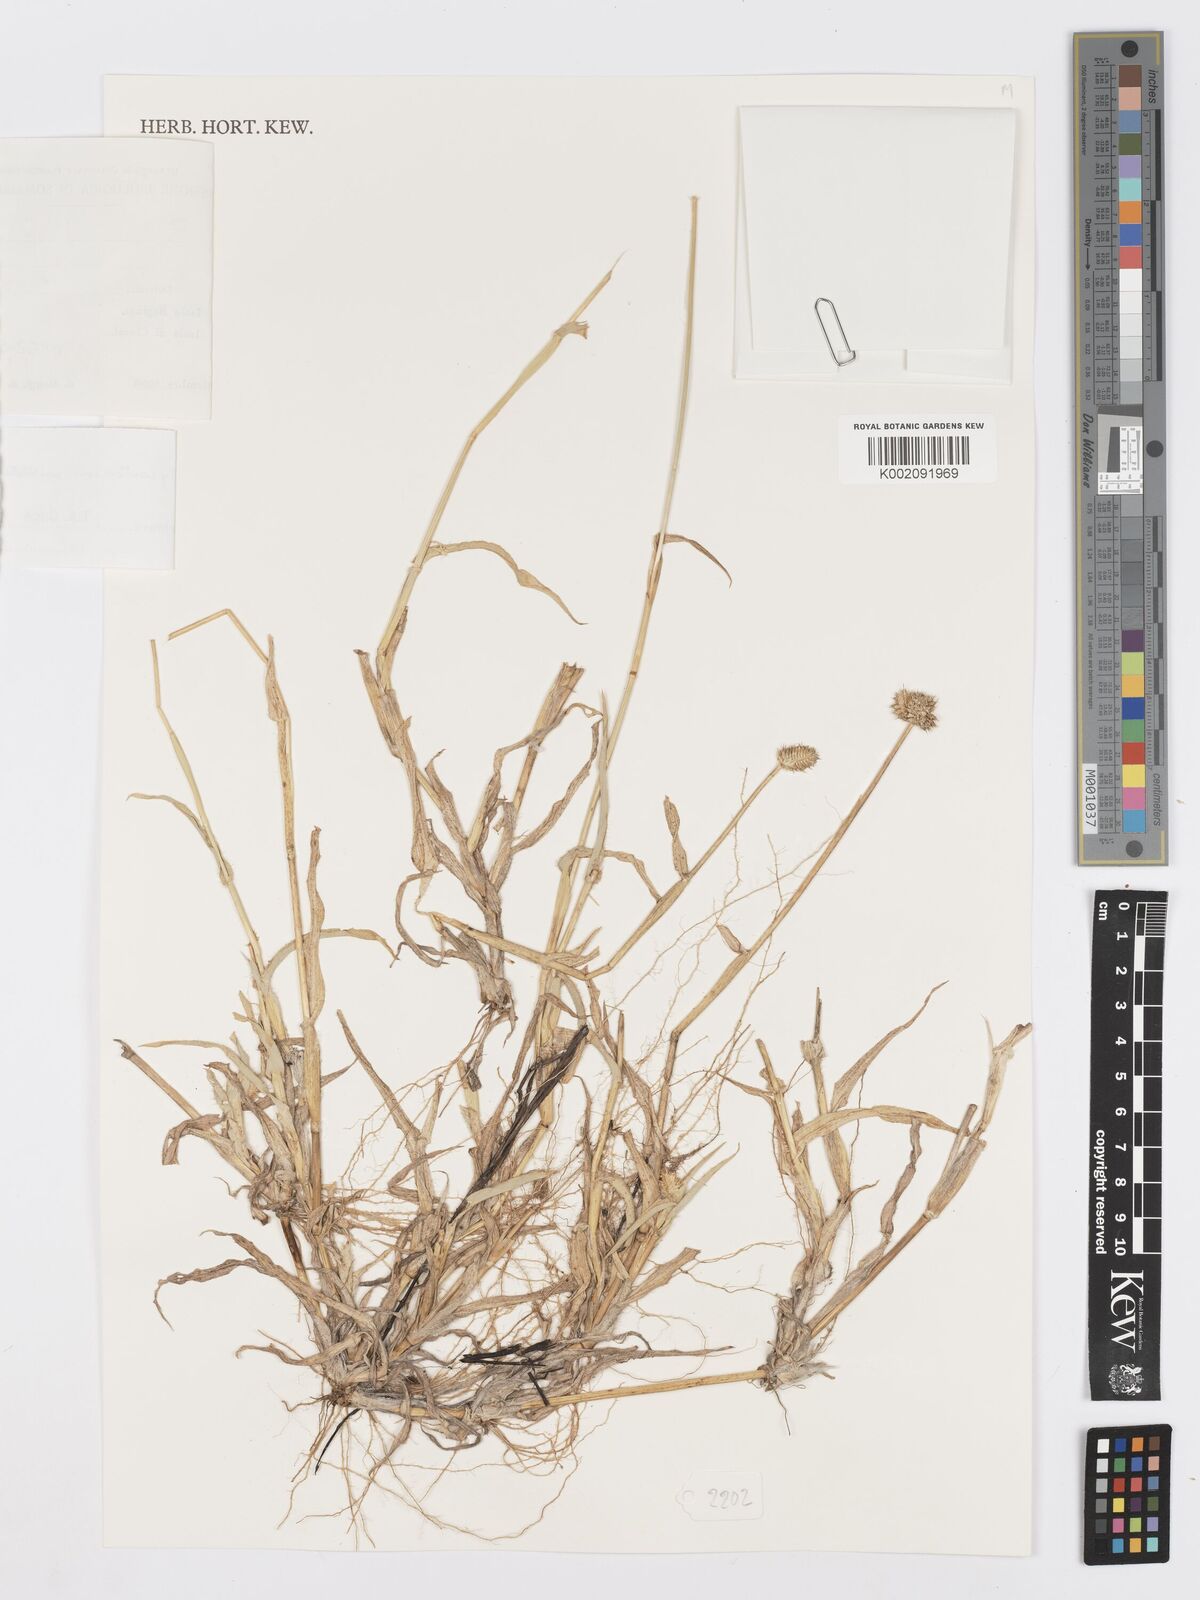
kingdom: Plantae
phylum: Tracheophyta
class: Liliopsida
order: Poales
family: Poaceae
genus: Dactyloctenium
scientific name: Dactyloctenium aristatum
